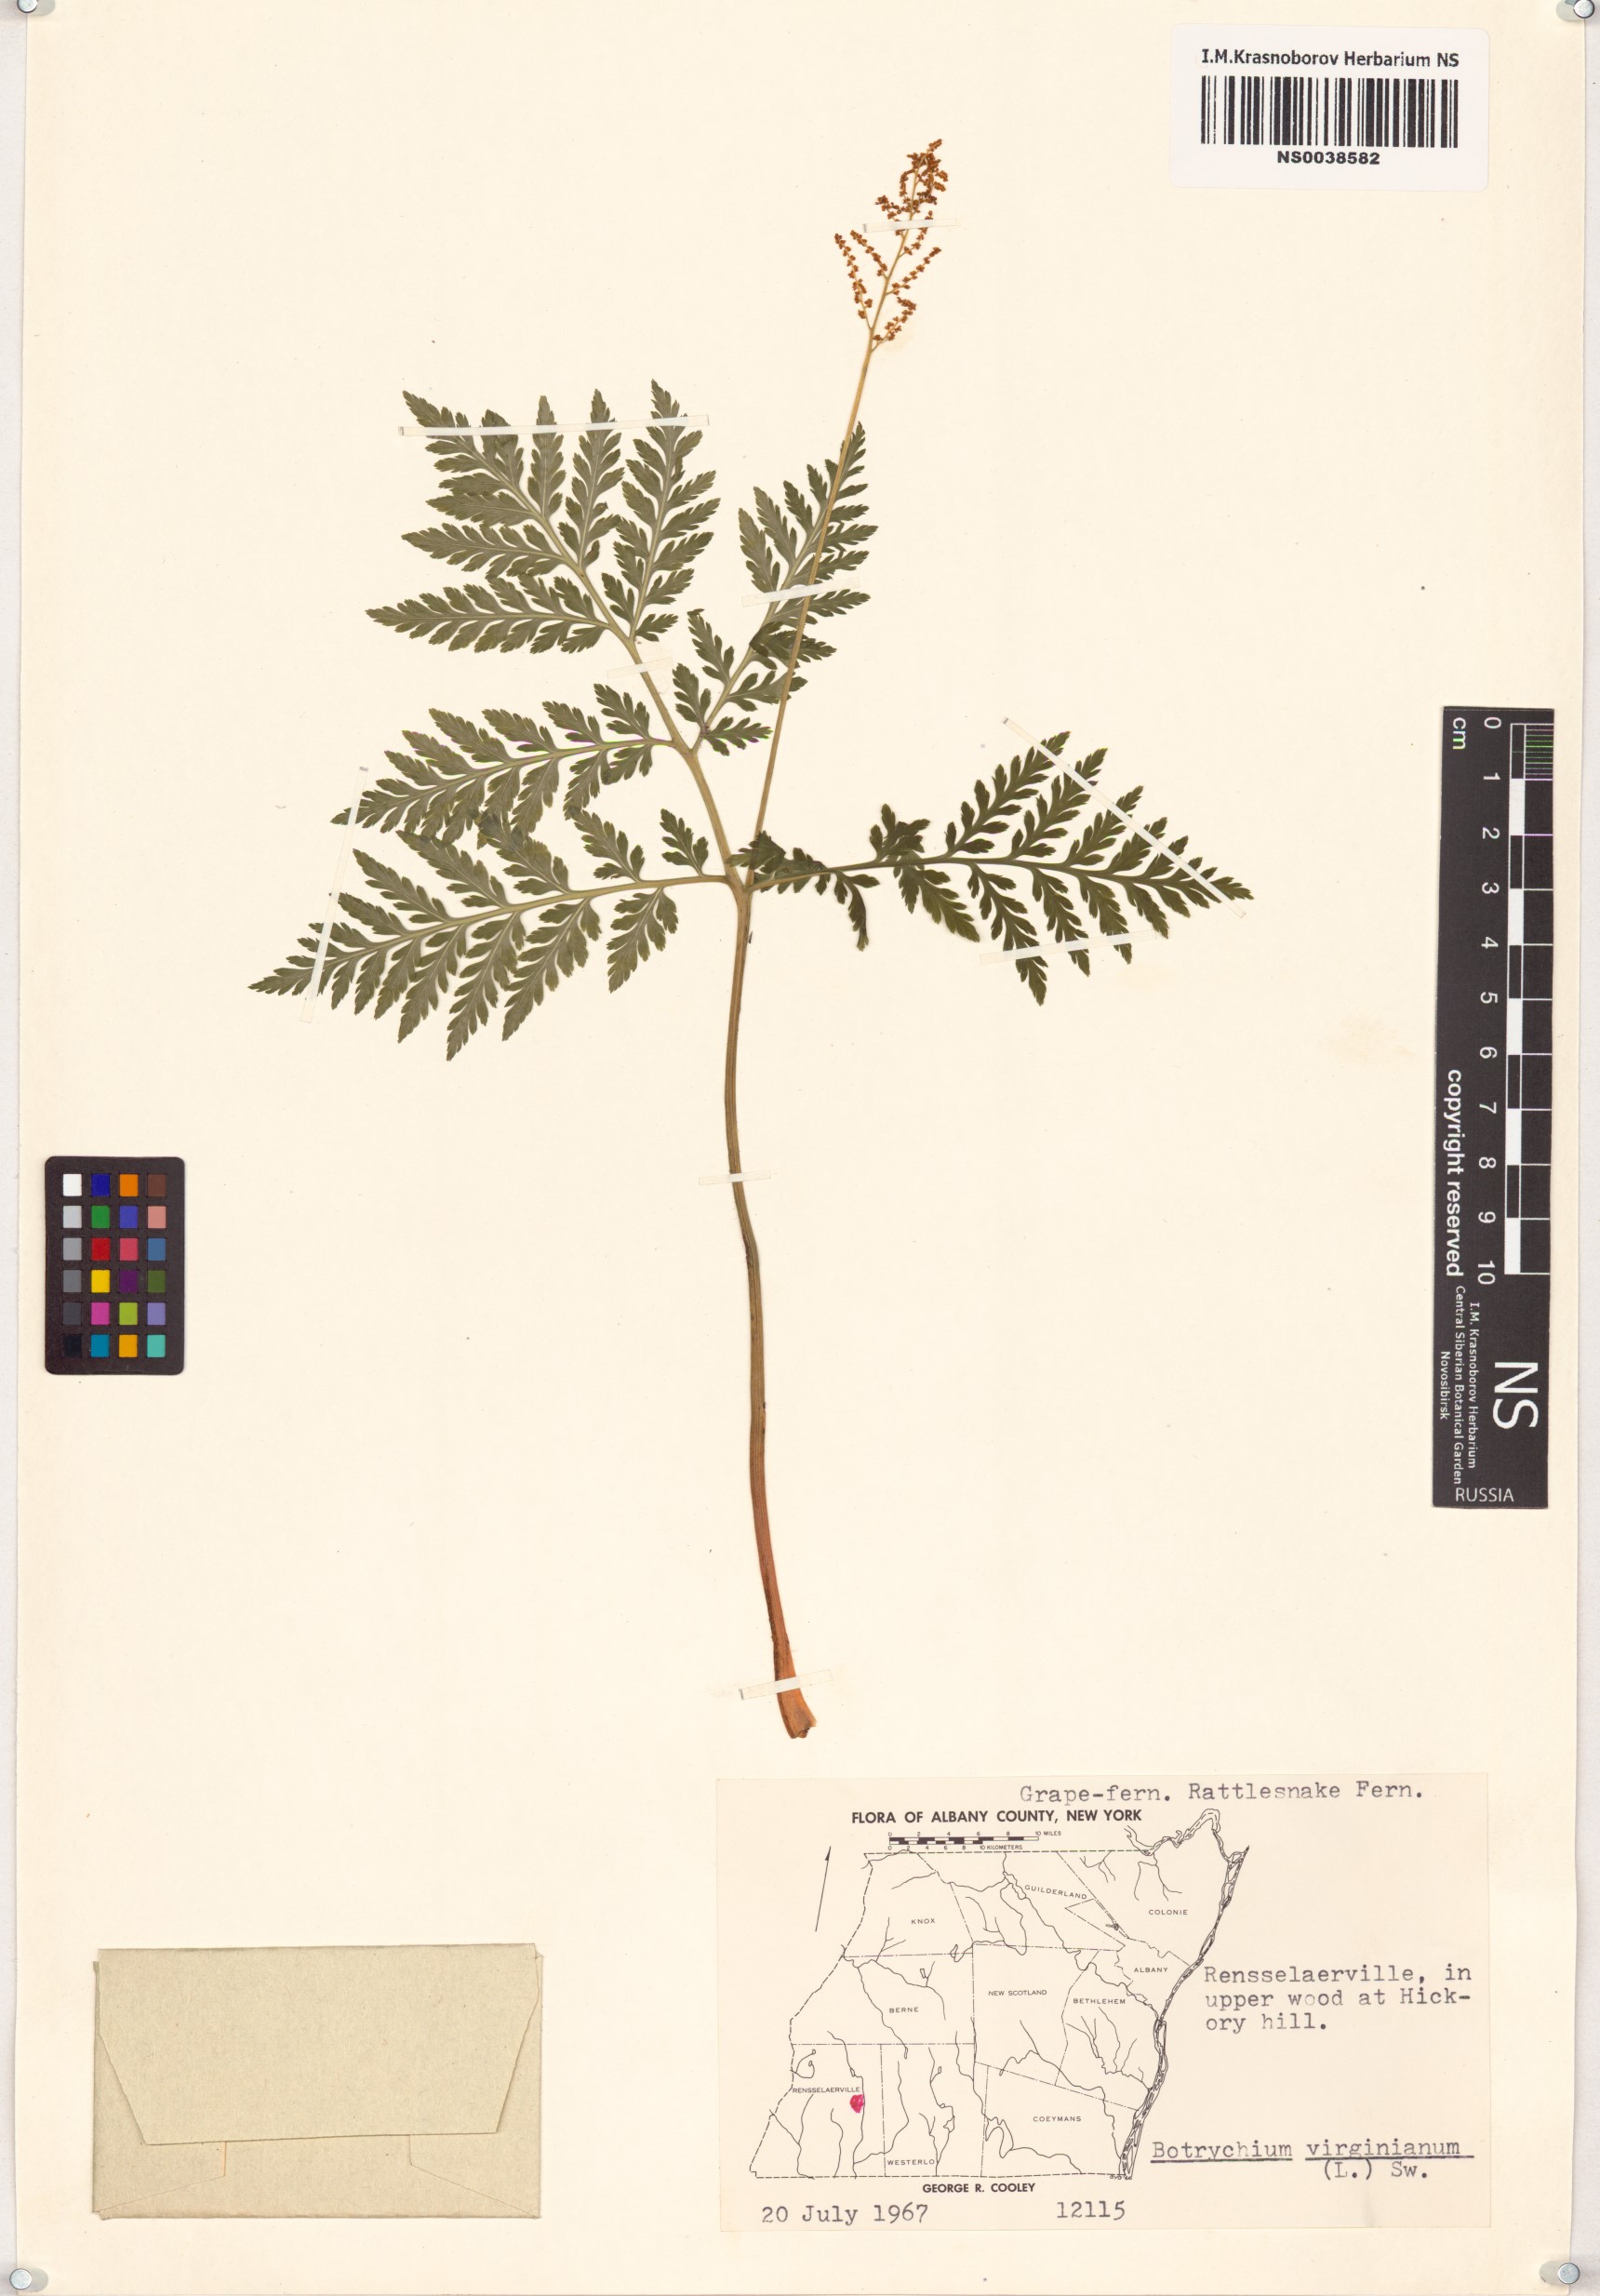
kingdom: Plantae
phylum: Tracheophyta
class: Polypodiopsida
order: Ophioglossales
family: Ophioglossaceae
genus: Botrypus
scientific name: Botrypus virginianus
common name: Common grapefern
